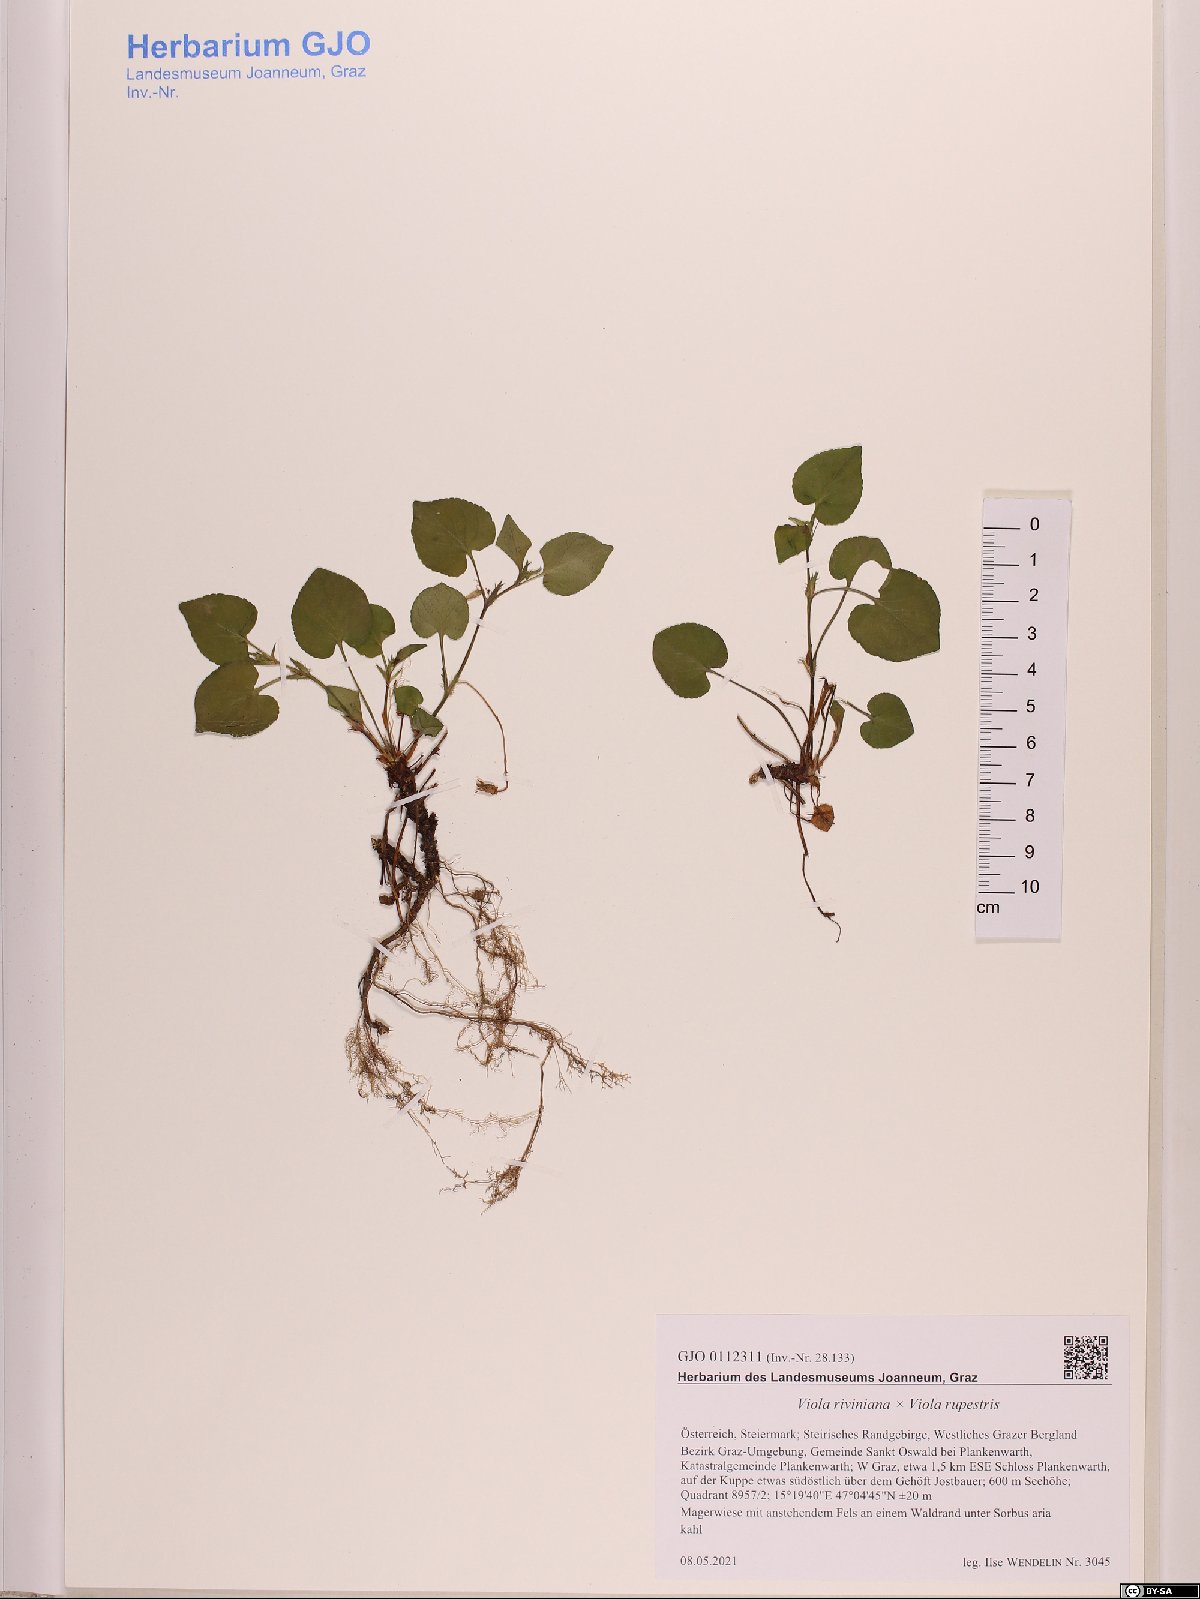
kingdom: Plantae
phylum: Tracheophyta
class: Magnoliopsida
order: Malpighiales
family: Violaceae
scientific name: Violaceae
